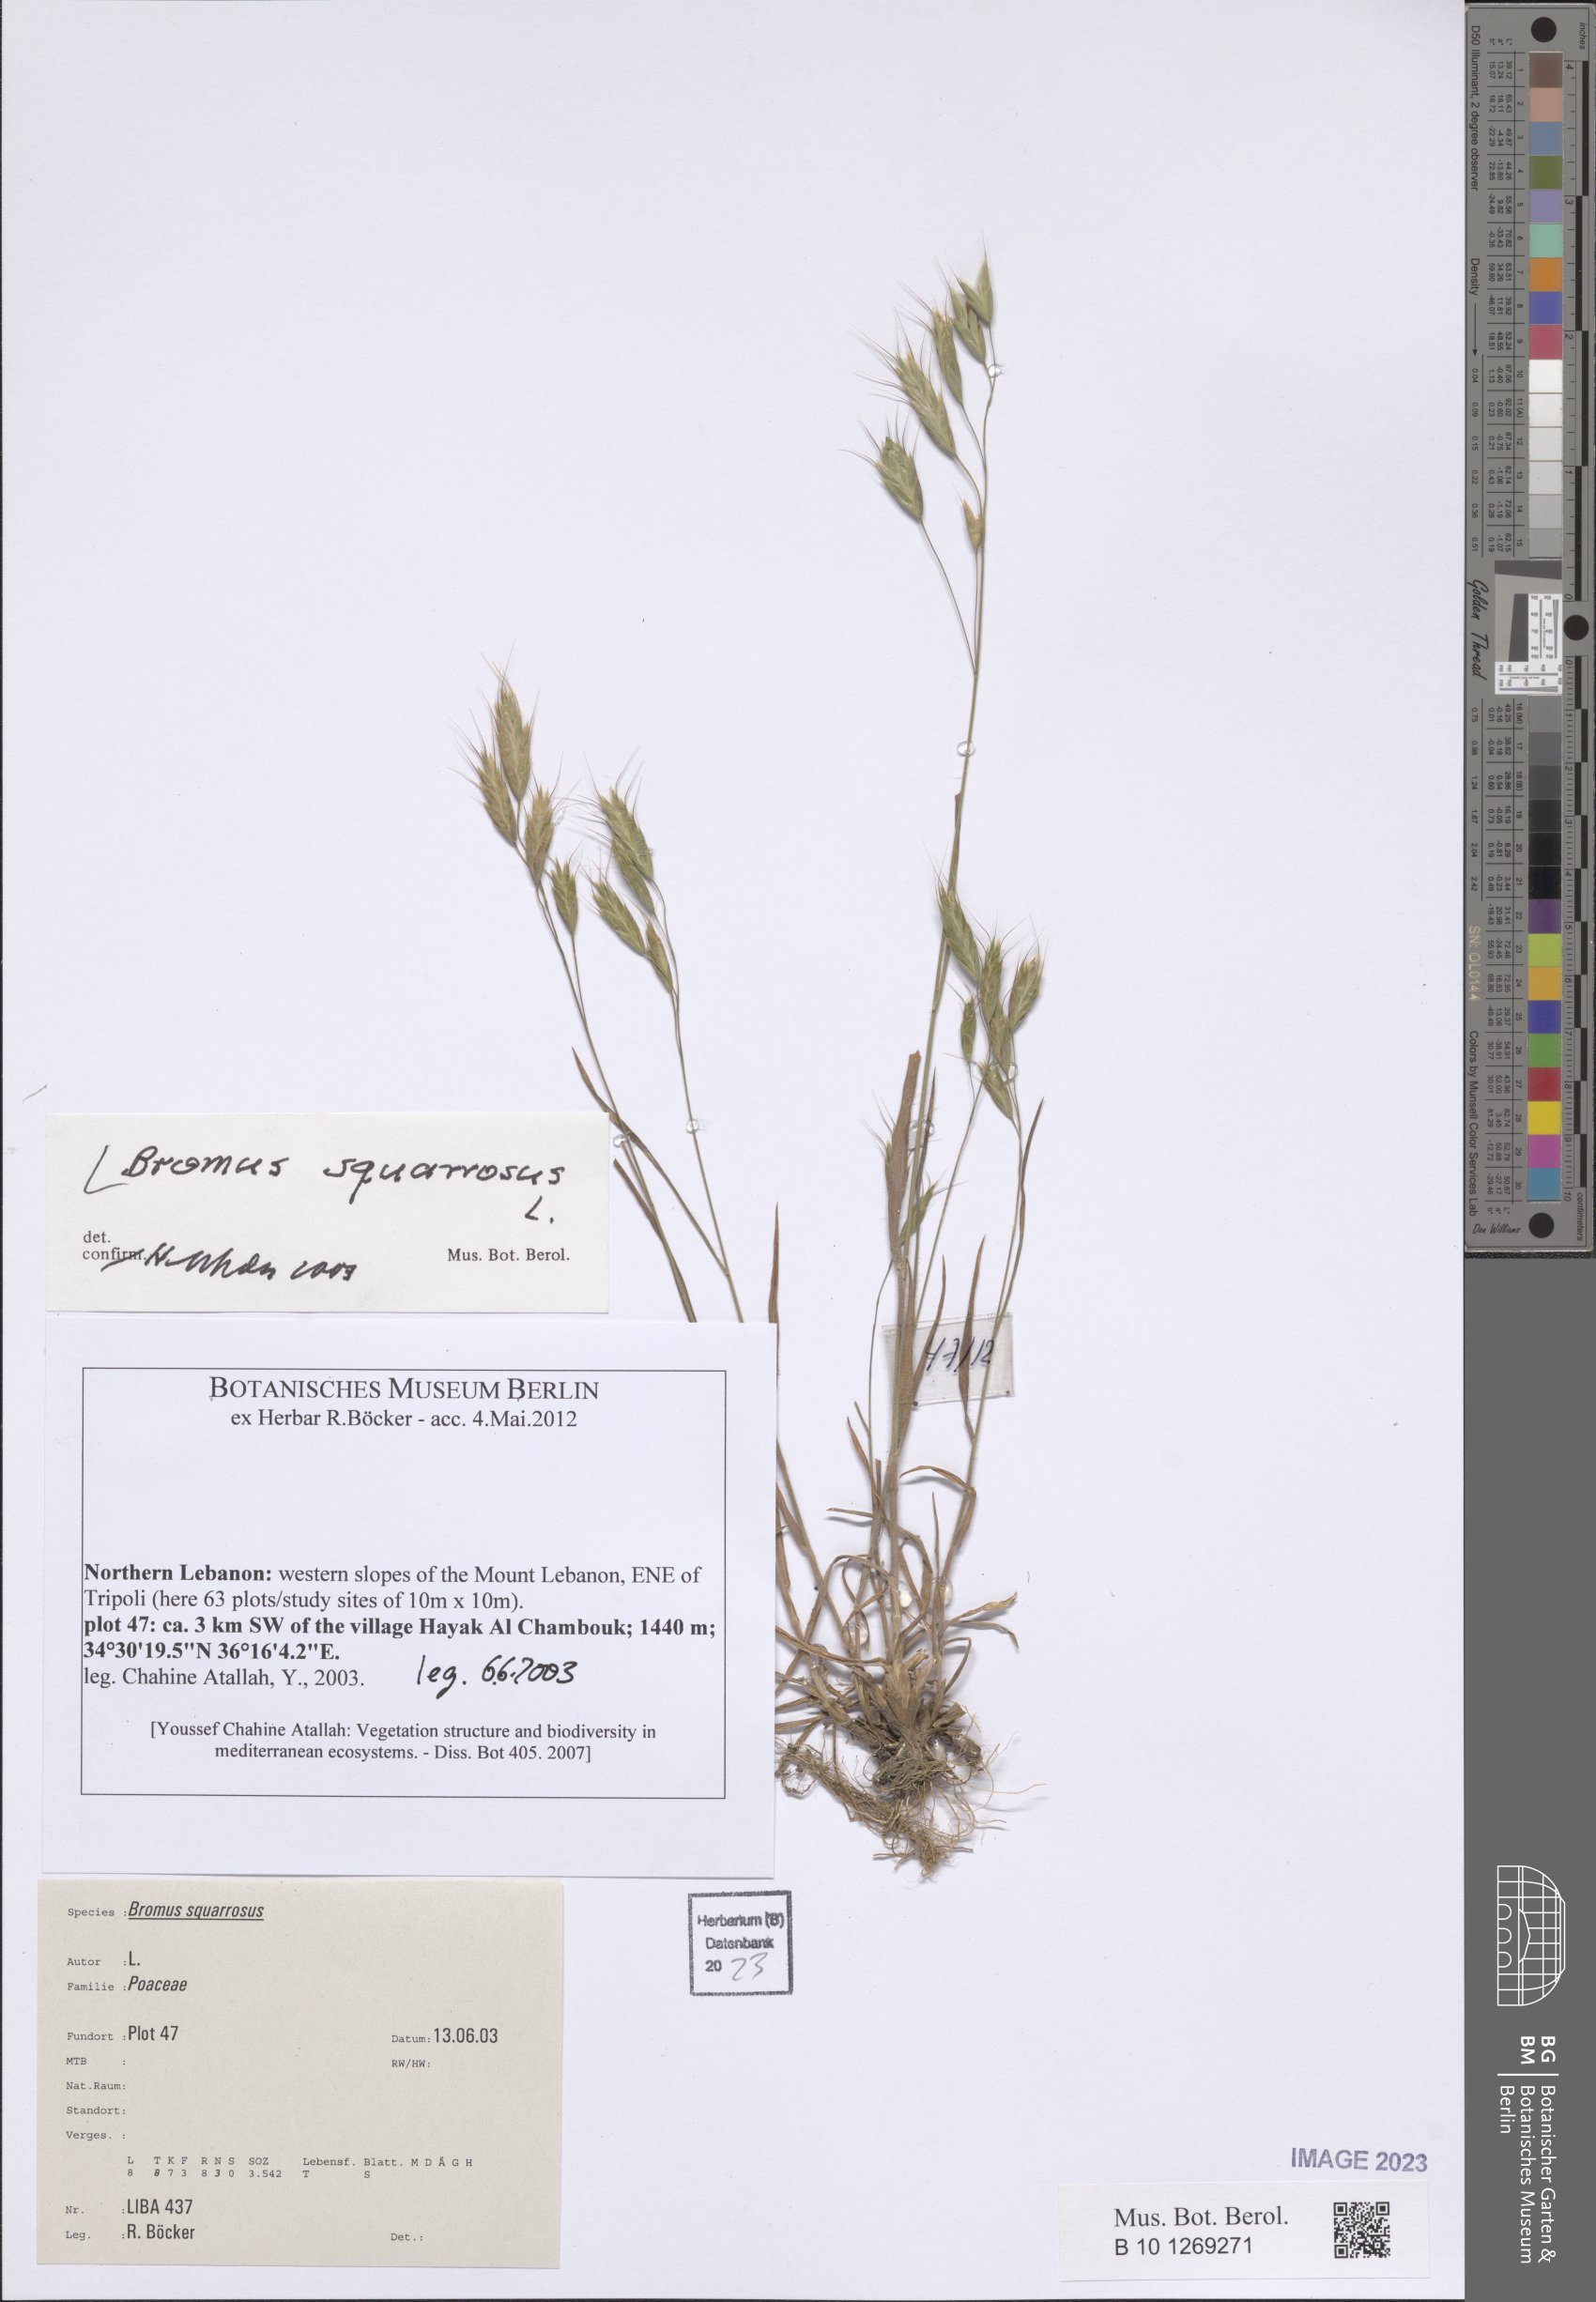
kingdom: Plantae
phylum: Tracheophyta
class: Liliopsida
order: Poales
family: Poaceae
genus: Bromus
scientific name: Bromus squarrosus
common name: Corn brome
